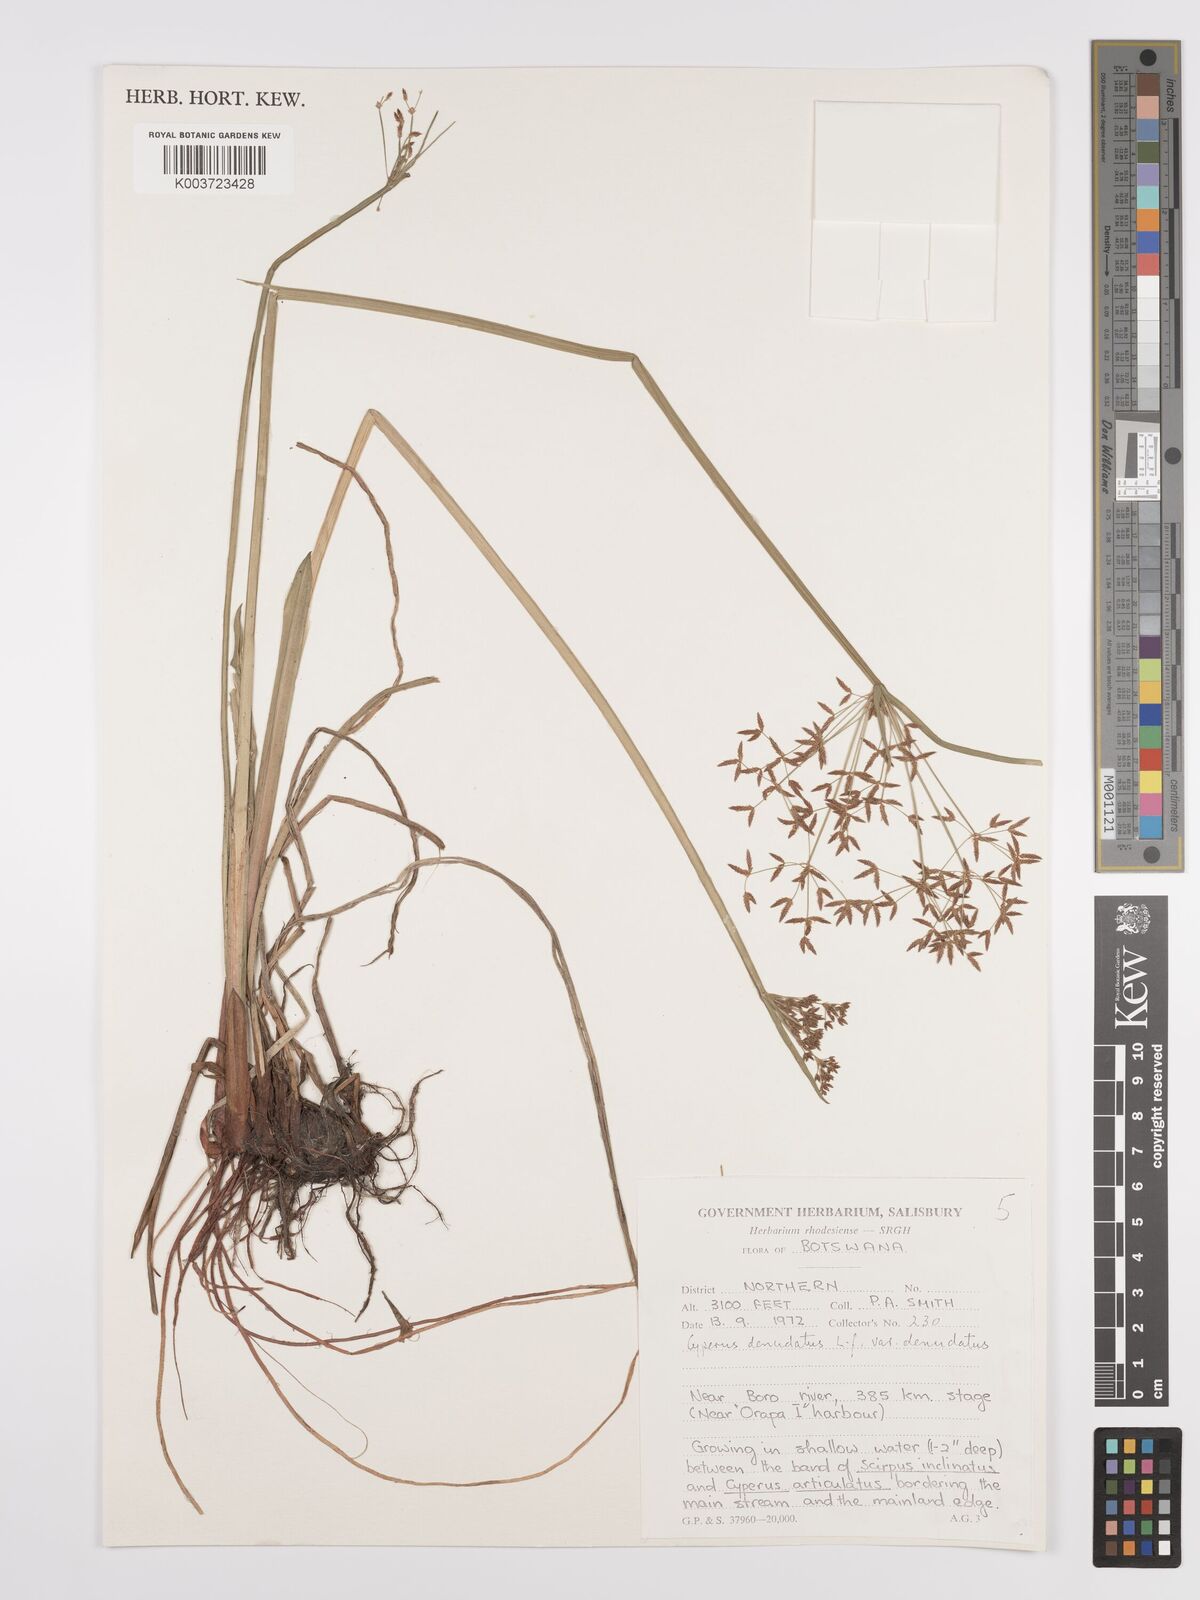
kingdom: Plantae
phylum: Tracheophyta
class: Liliopsida
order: Poales
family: Cyperaceae
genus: Cyperus
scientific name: Cyperus denudatus
